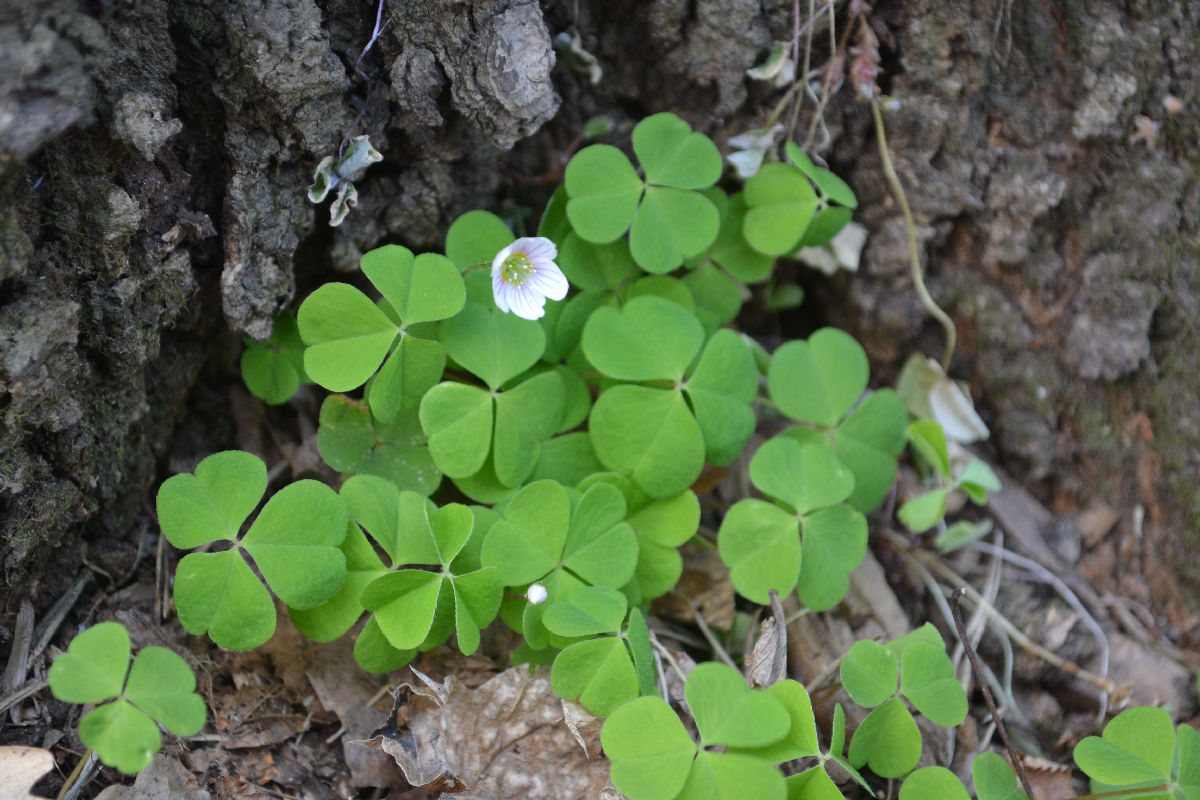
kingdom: Plantae
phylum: Tracheophyta
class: Magnoliopsida
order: Oxalidales
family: Oxalidaceae
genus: Oxalis
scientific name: Oxalis acetosella
